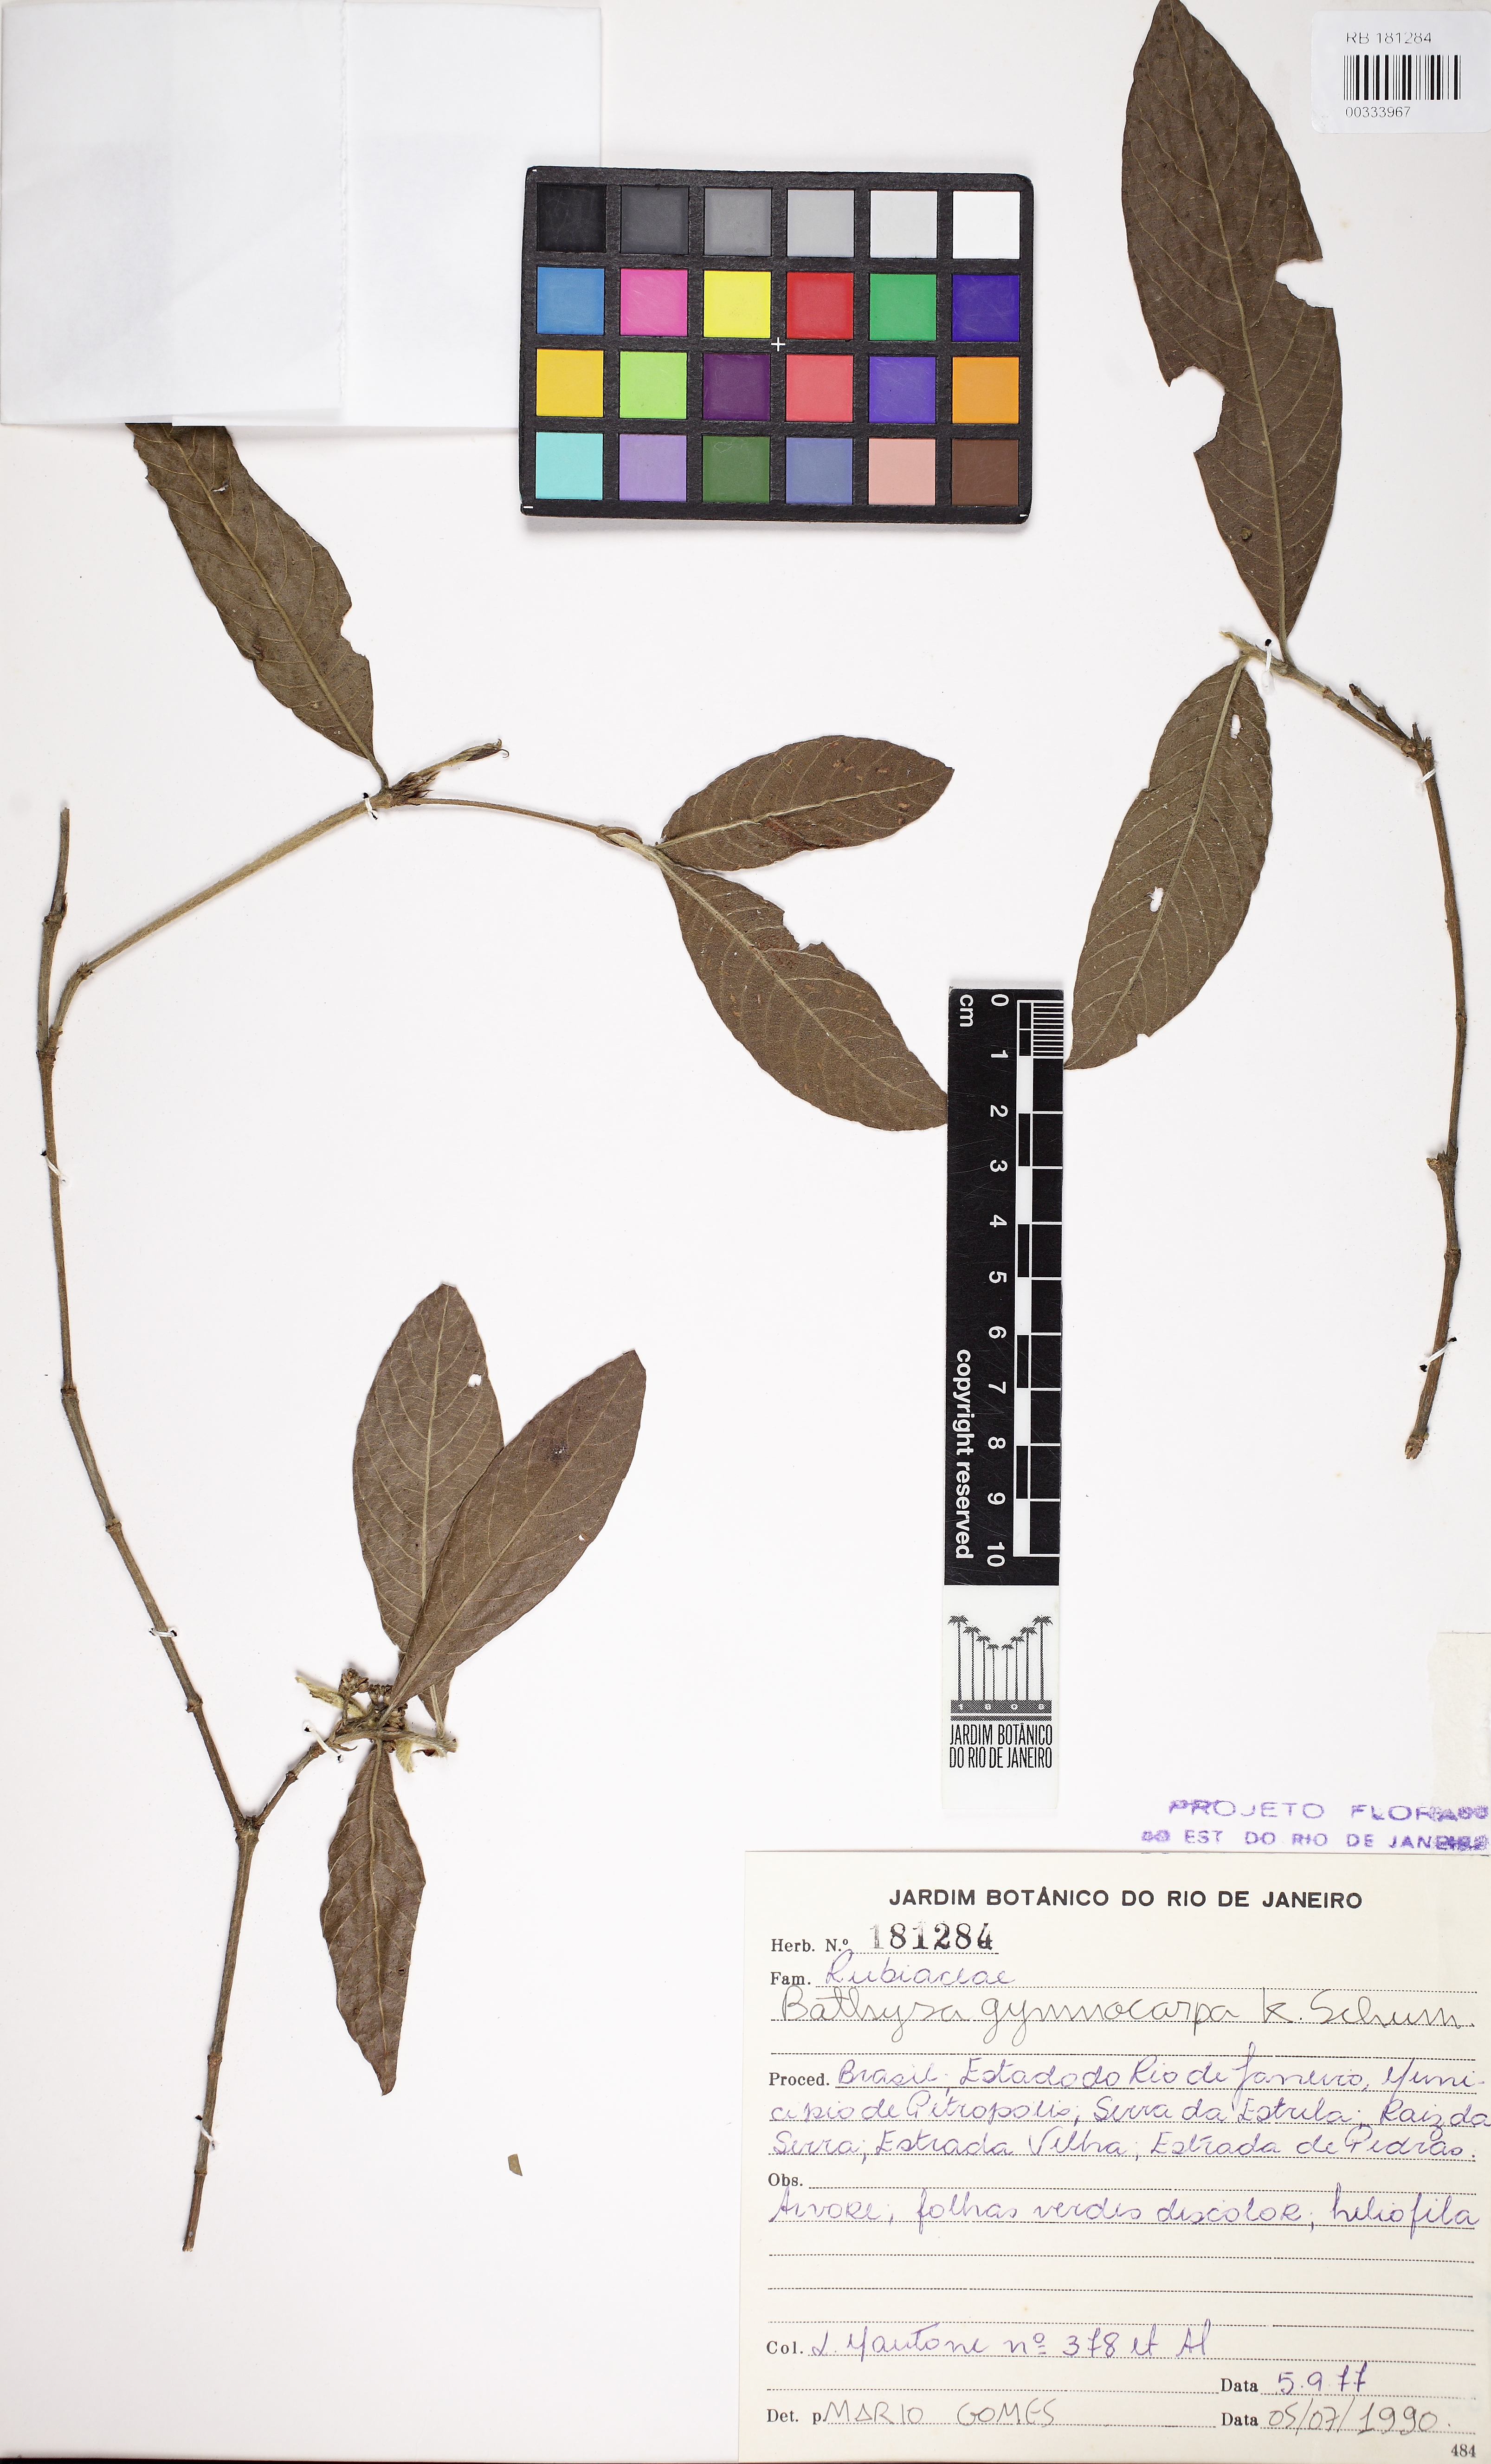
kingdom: Plantae
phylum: Tracheophyta
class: Magnoliopsida
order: Gentianales
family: Rubiaceae
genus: Bathysa
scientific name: Bathysa gymnocarpa
